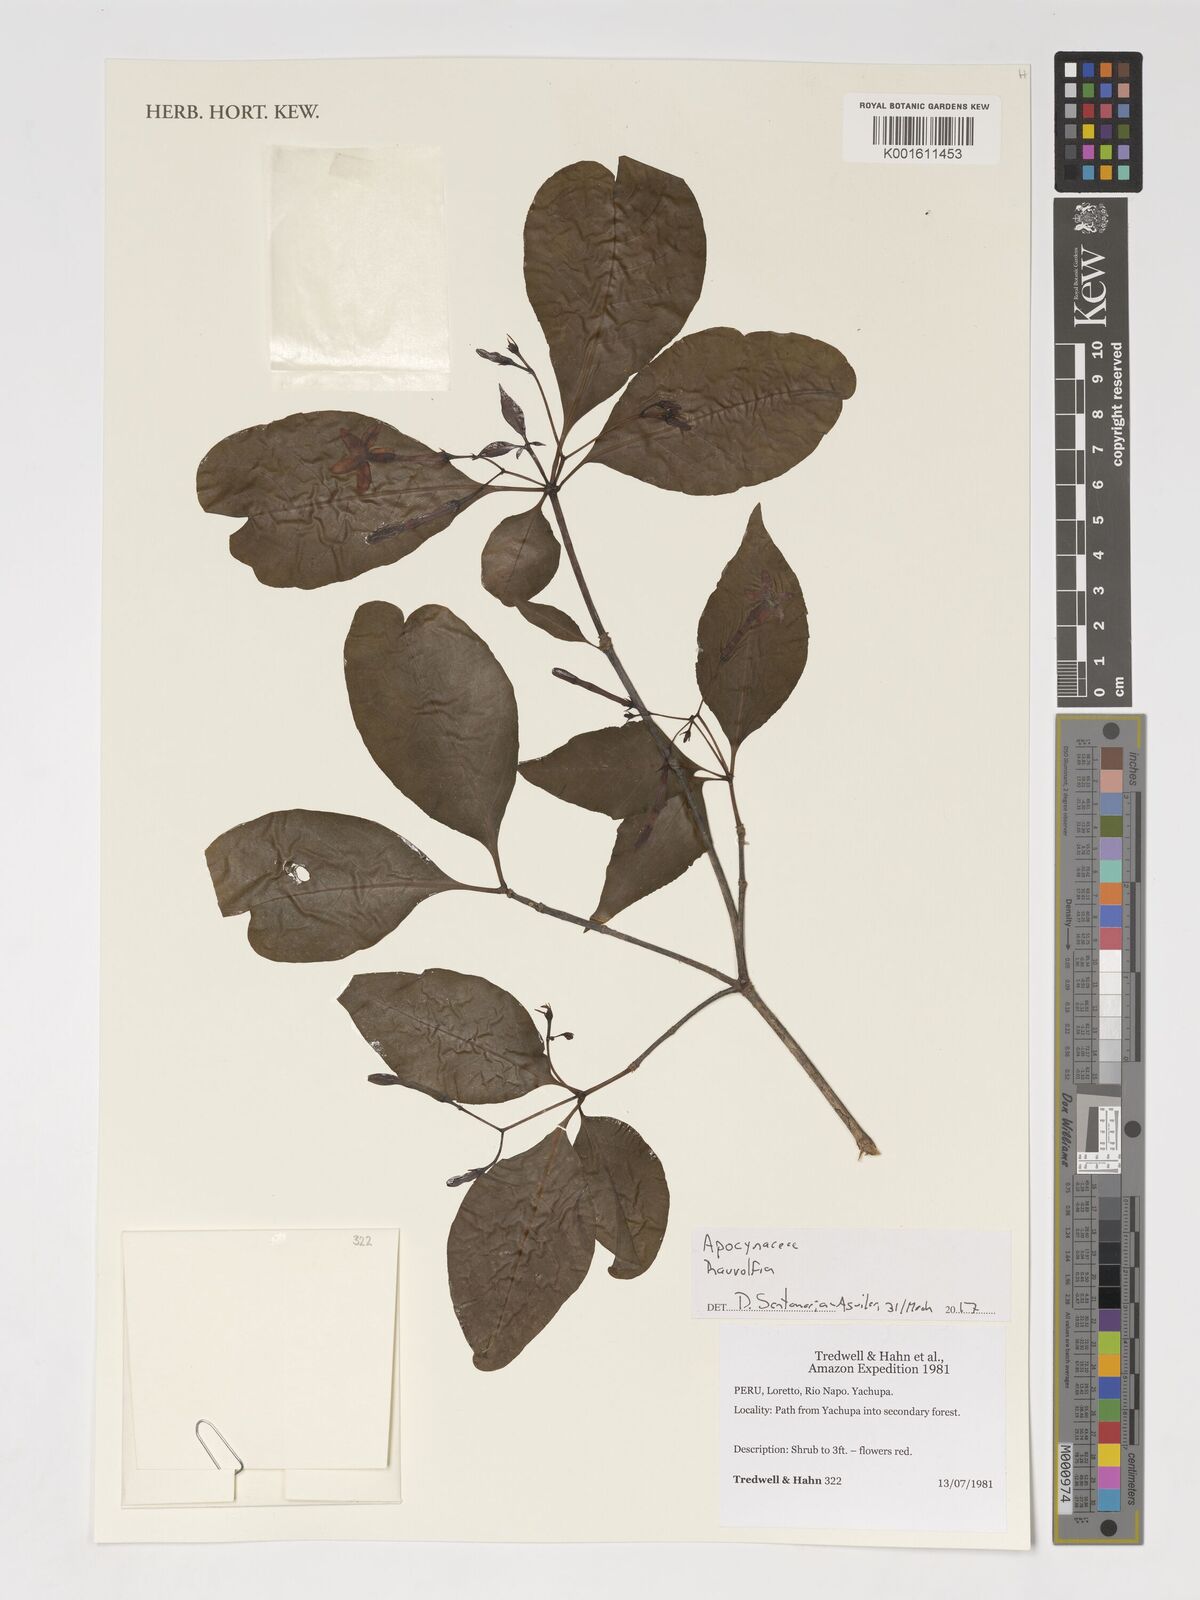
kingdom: Plantae
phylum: Tracheophyta
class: Magnoliopsida
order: Gentianales
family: Apocynaceae
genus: Rauvolfia
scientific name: Rauvolfia
